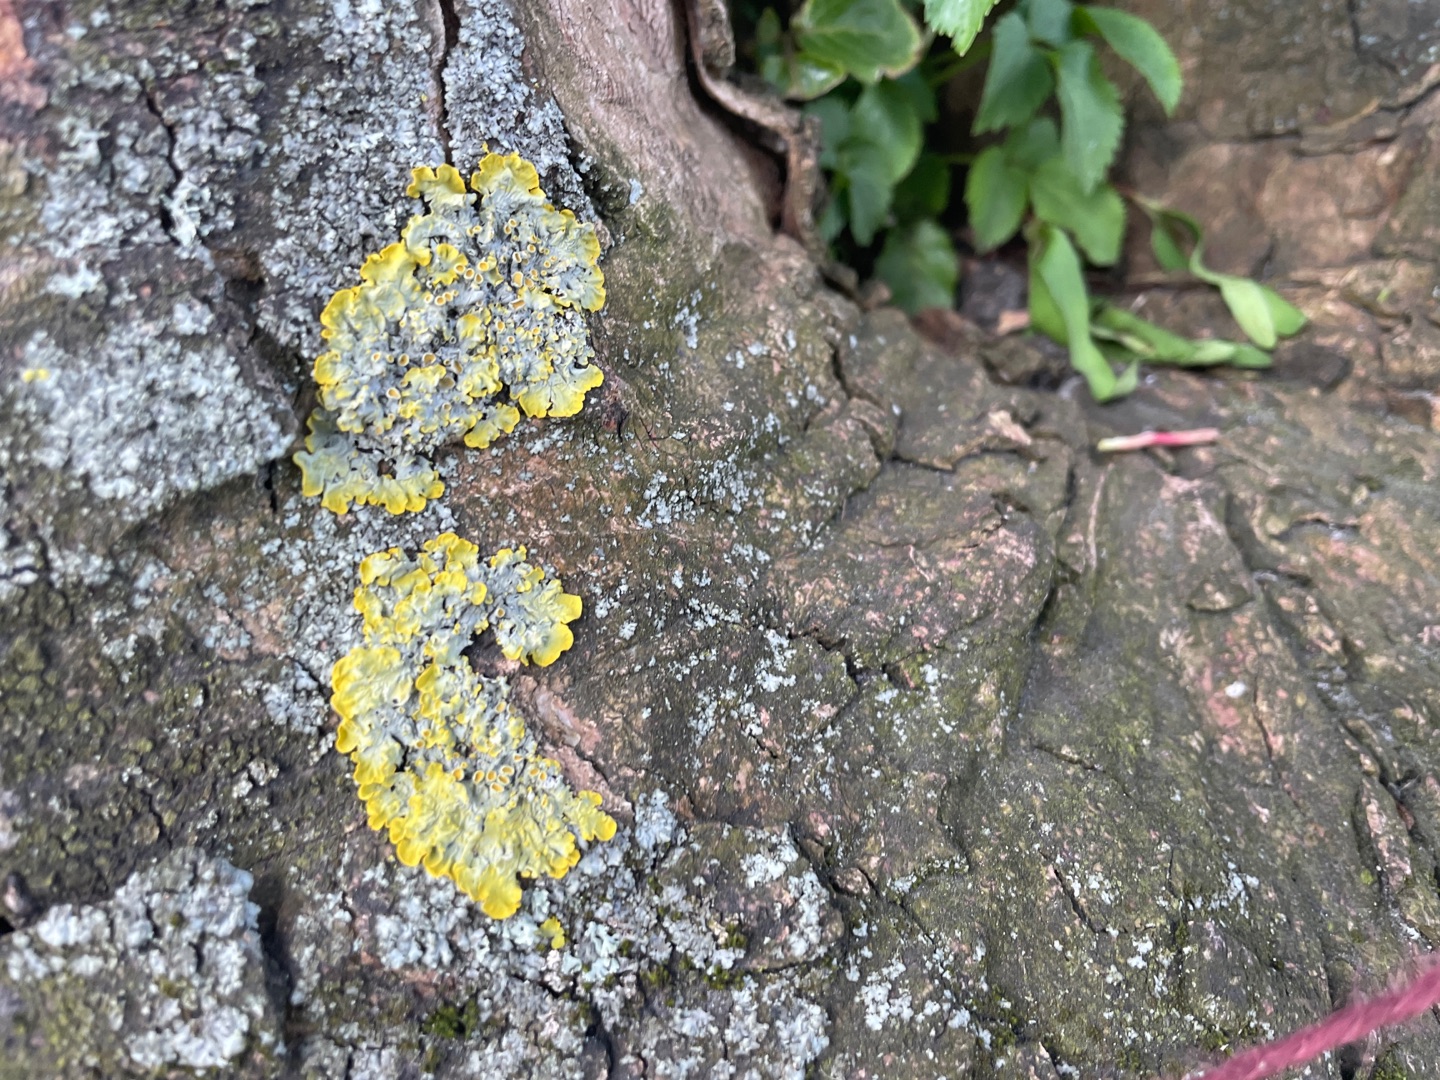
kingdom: Fungi
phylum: Ascomycota
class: Lecanoromycetes
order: Teloschistales
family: Teloschistaceae
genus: Xanthoria
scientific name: Xanthoria parietina
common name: Almindelig væggelav
